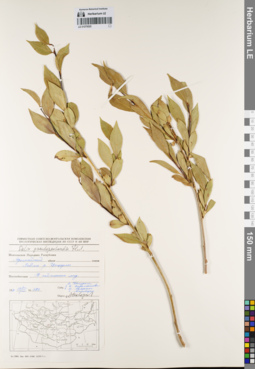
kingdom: Plantae
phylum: Tracheophyta
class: Magnoliopsida
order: Malpighiales
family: Salicaceae
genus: Salix
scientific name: Salix pseudopentandra
